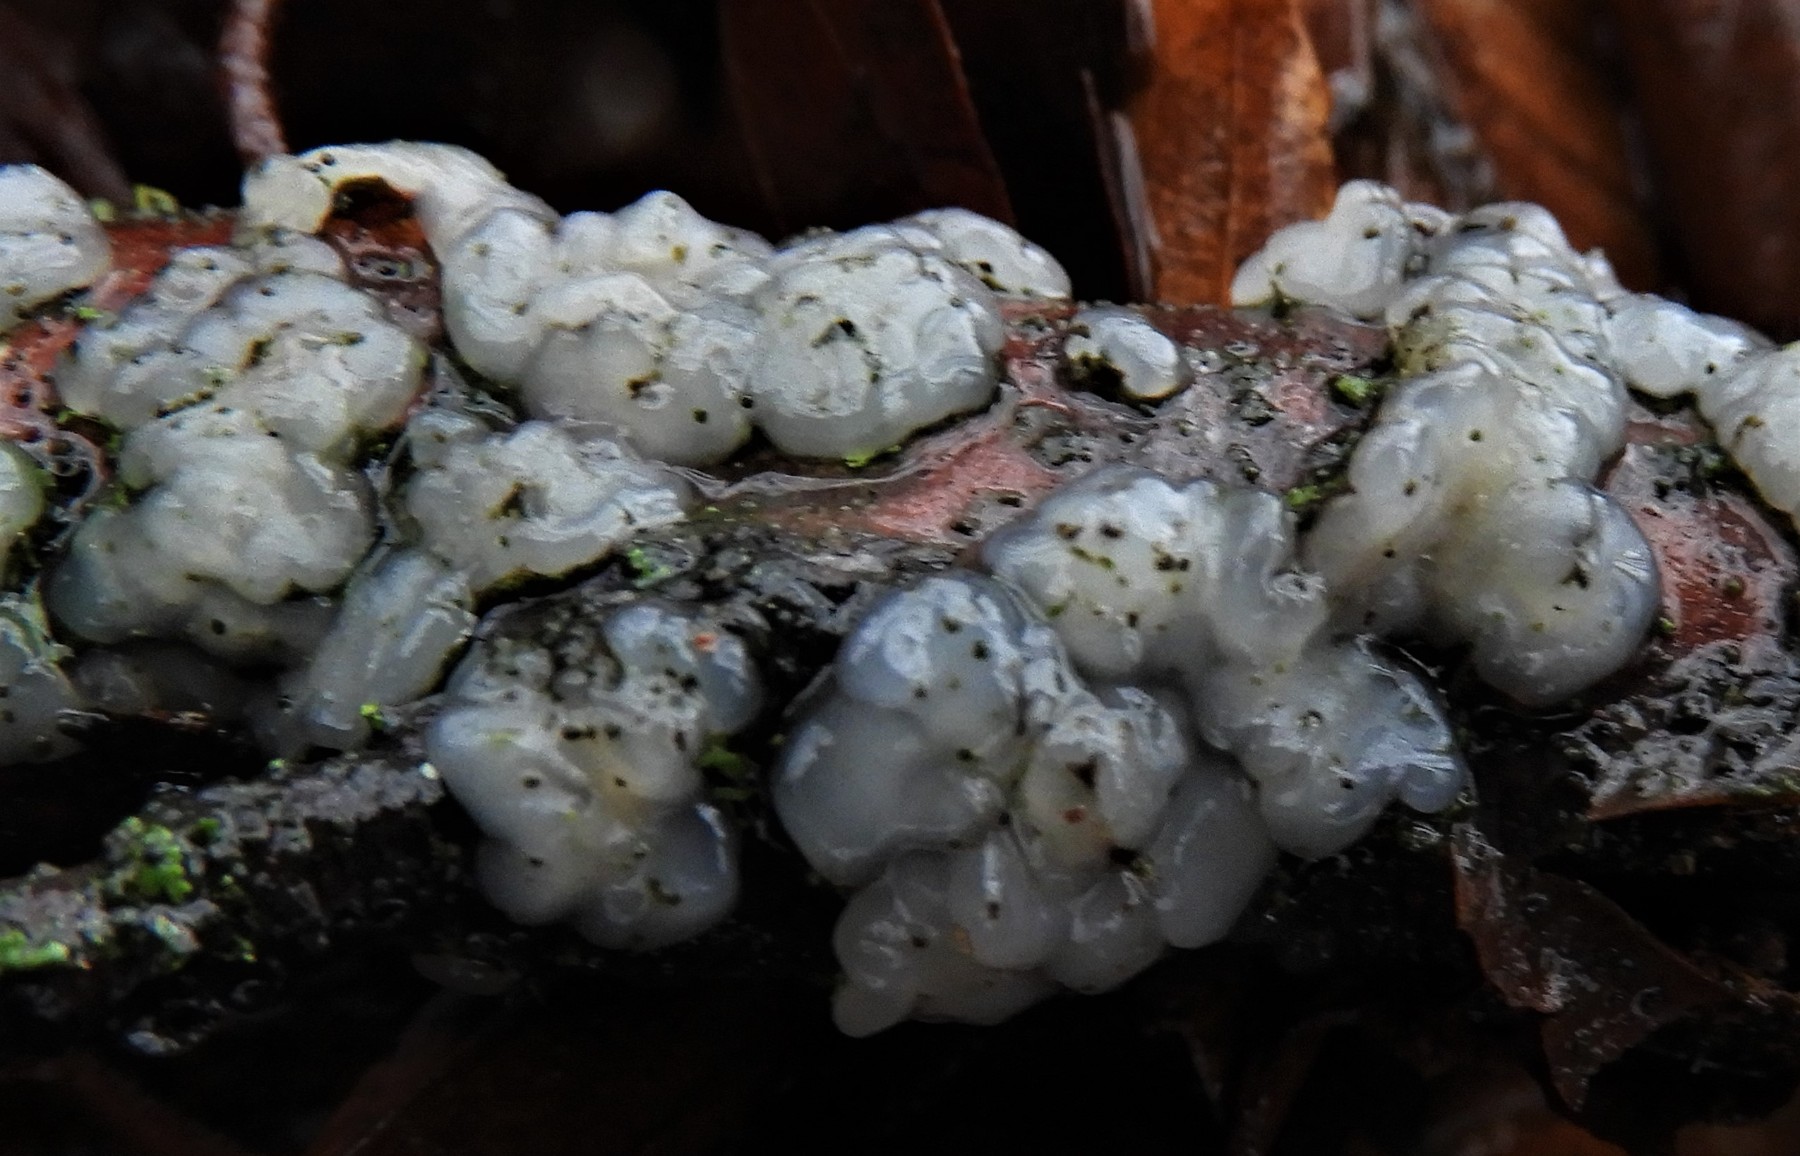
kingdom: Fungi
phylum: Basidiomycota
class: Agaricomycetes
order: Auriculariales
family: Hyaloriaceae
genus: Myxarium
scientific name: Myxarium nucleatum
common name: klar bævretop
